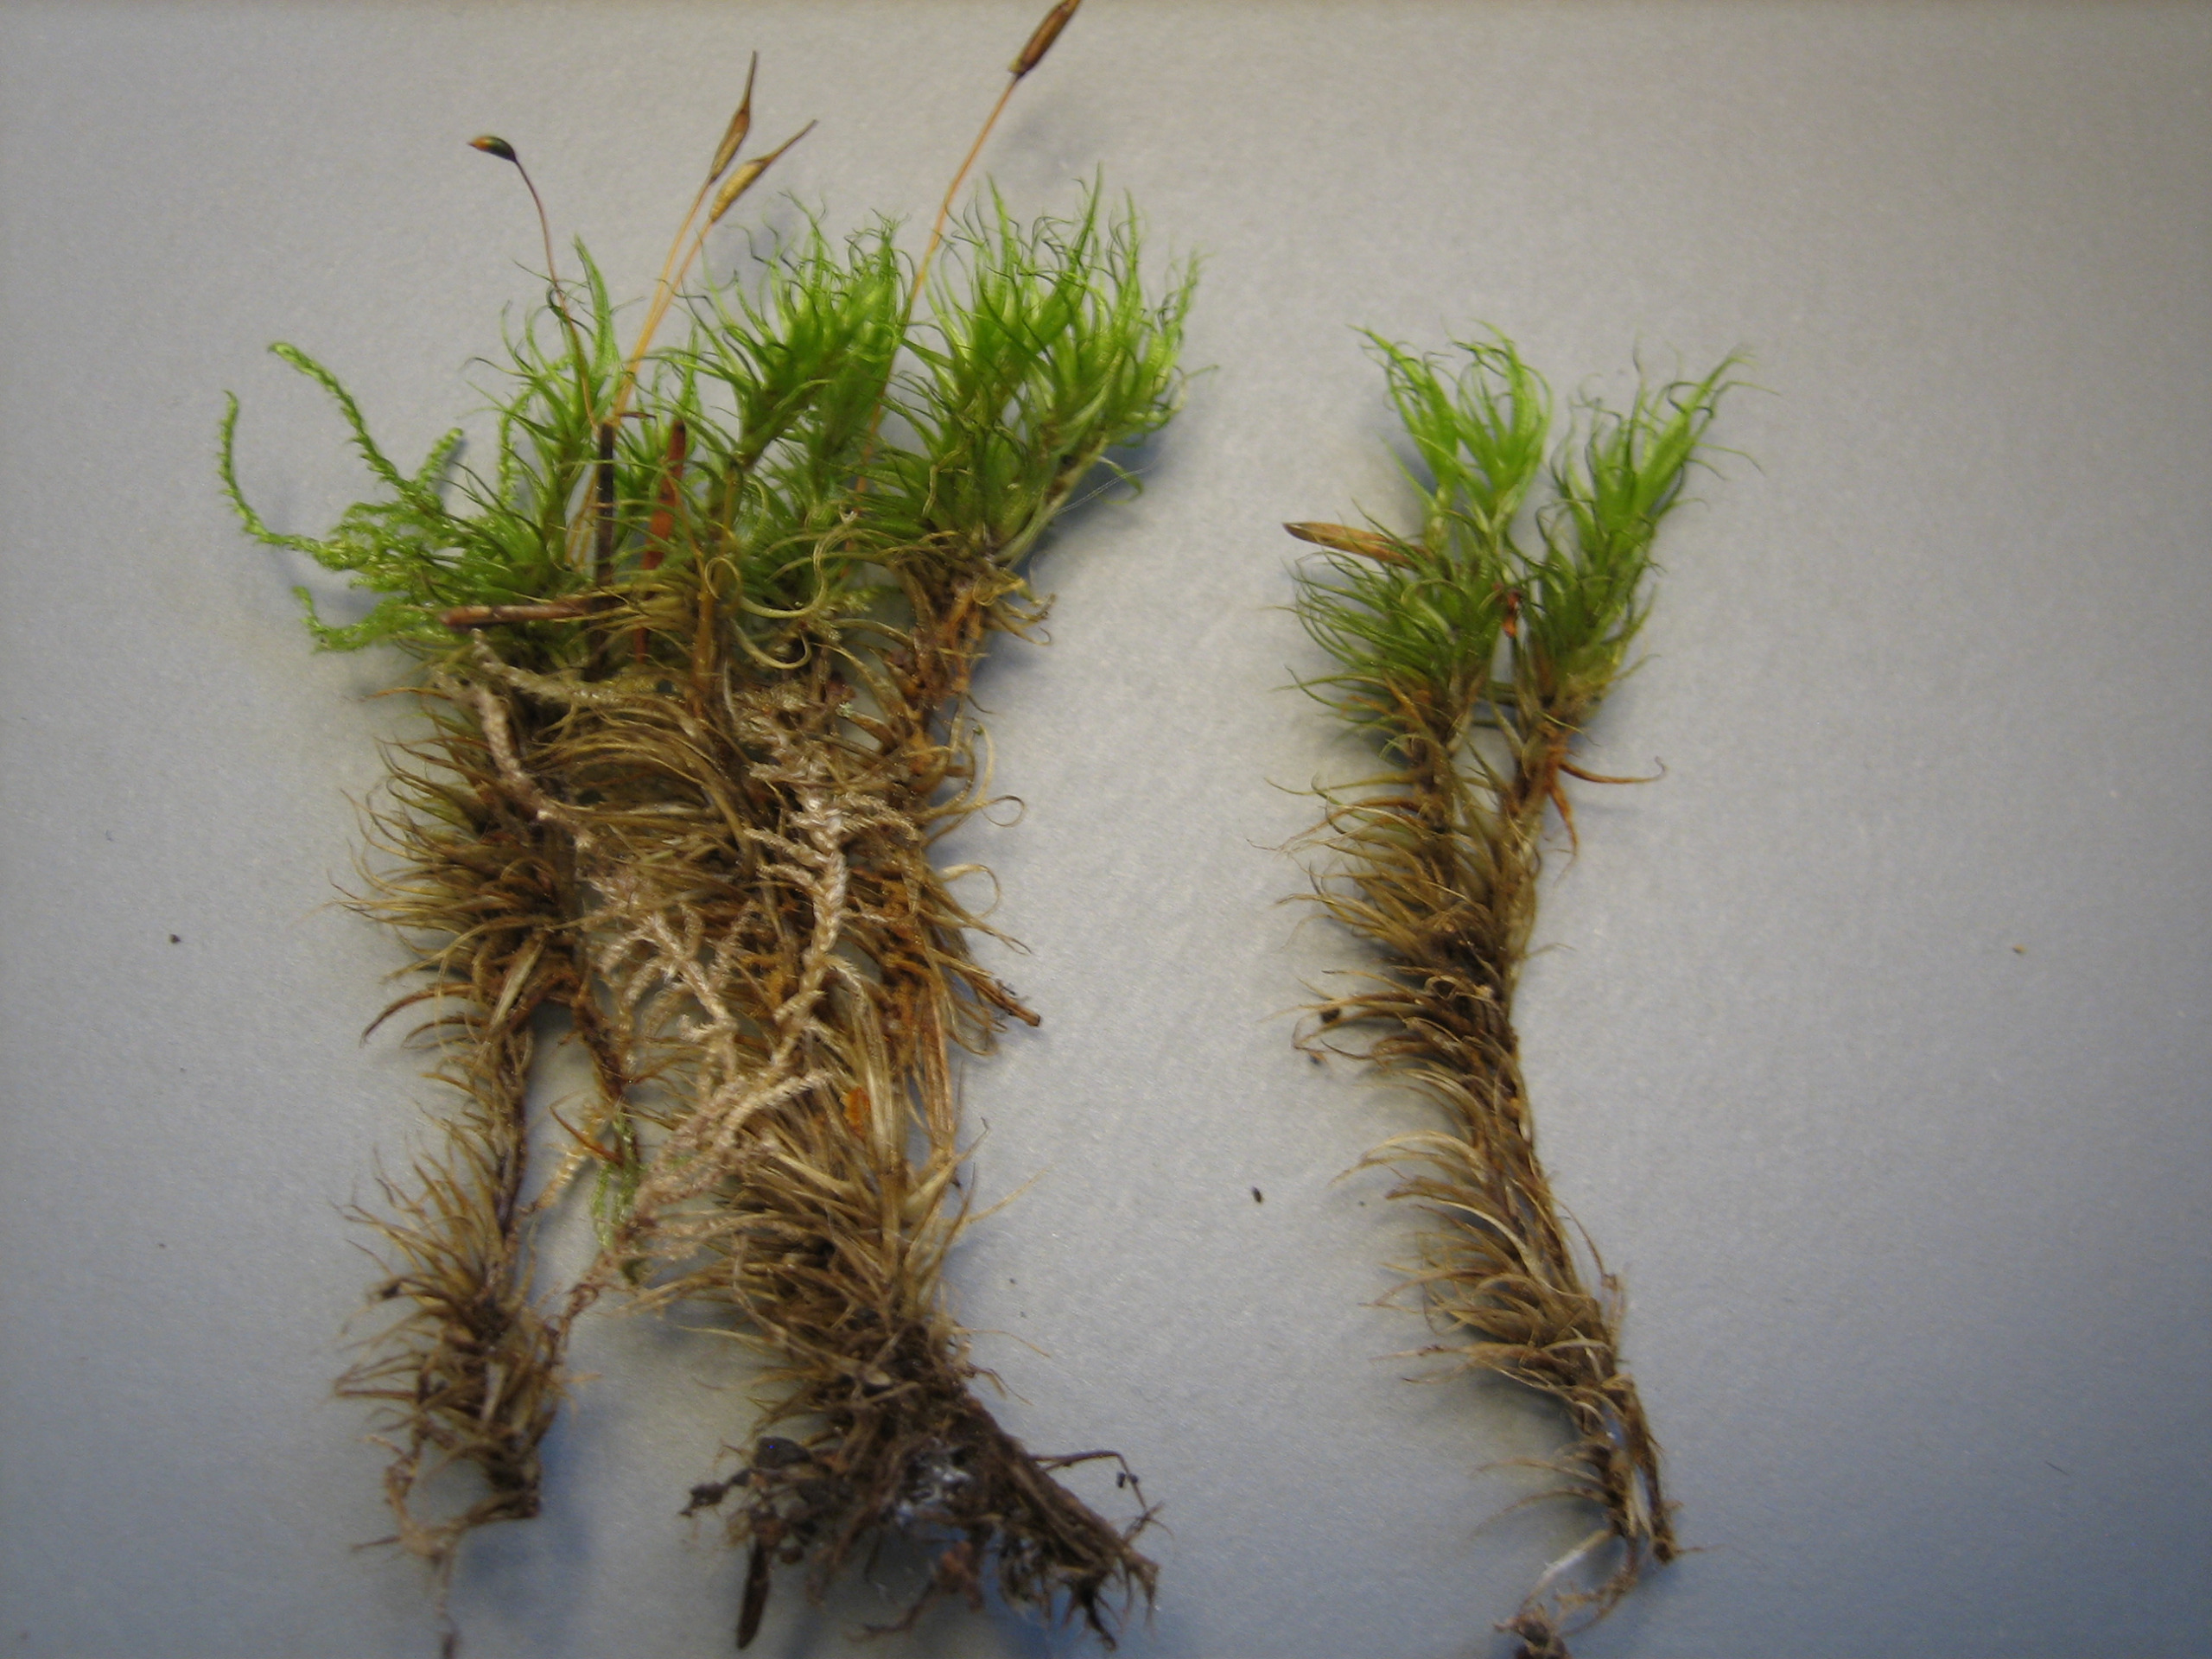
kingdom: Plantae
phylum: Bryophyta
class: Bryopsida
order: Dicranales
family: Dicranaceae
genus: Dicranum
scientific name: Dicranum scoparium
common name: Almindelig kløvtand
